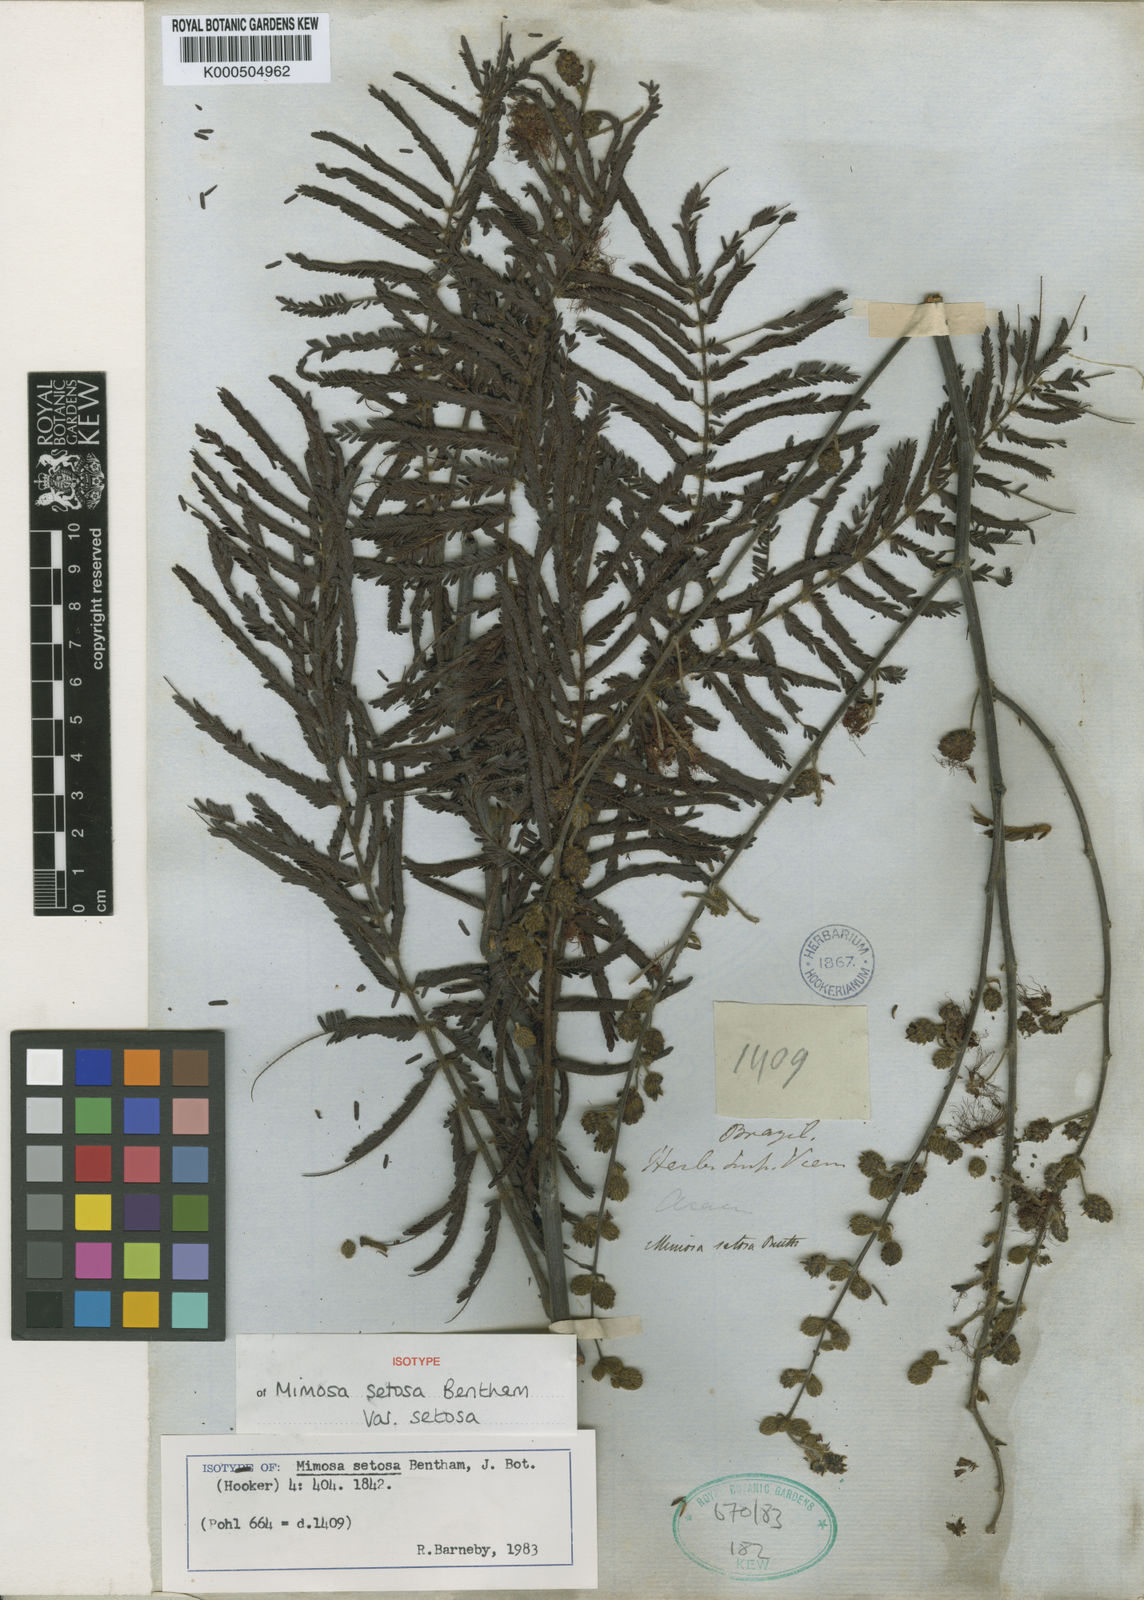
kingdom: Plantae
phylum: Tracheophyta
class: Magnoliopsida
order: Fabales
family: Fabaceae
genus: Mimosa
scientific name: Mimosa setosa
